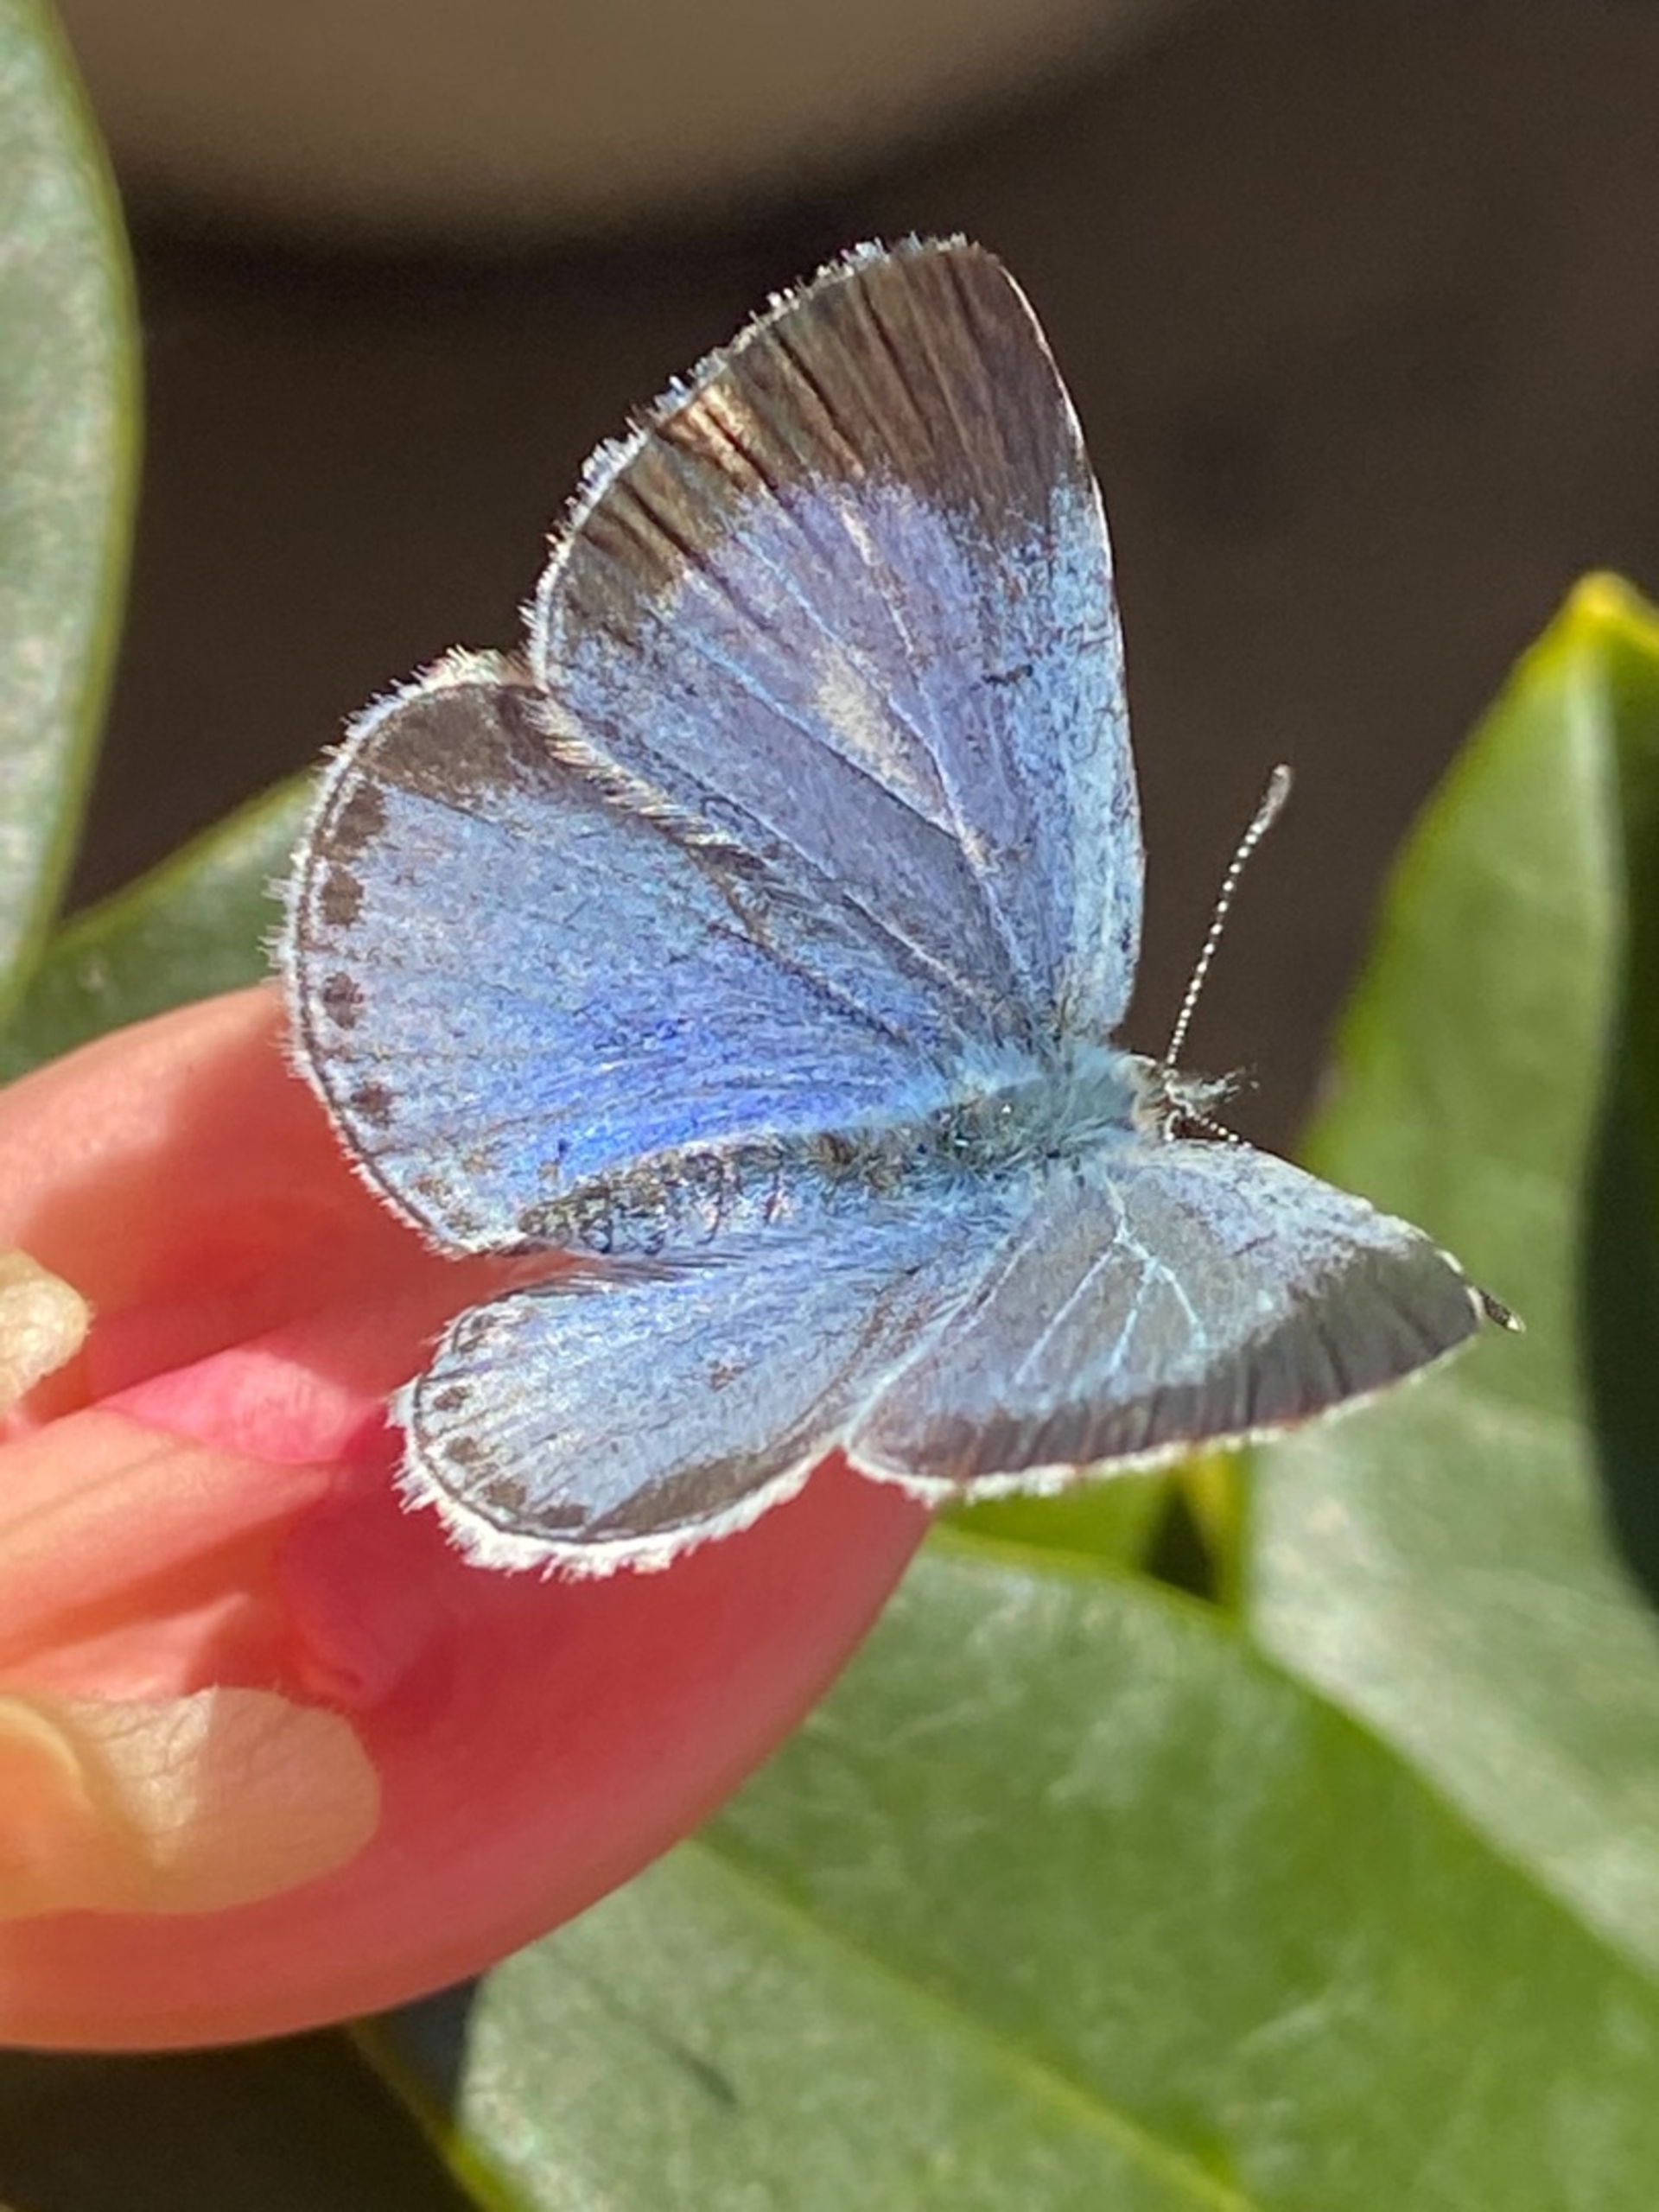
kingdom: Animalia
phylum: Arthropoda
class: Insecta
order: Lepidoptera
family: Lycaenidae
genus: Celastrina
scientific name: Celastrina argiolus
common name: Skovblåfugl
